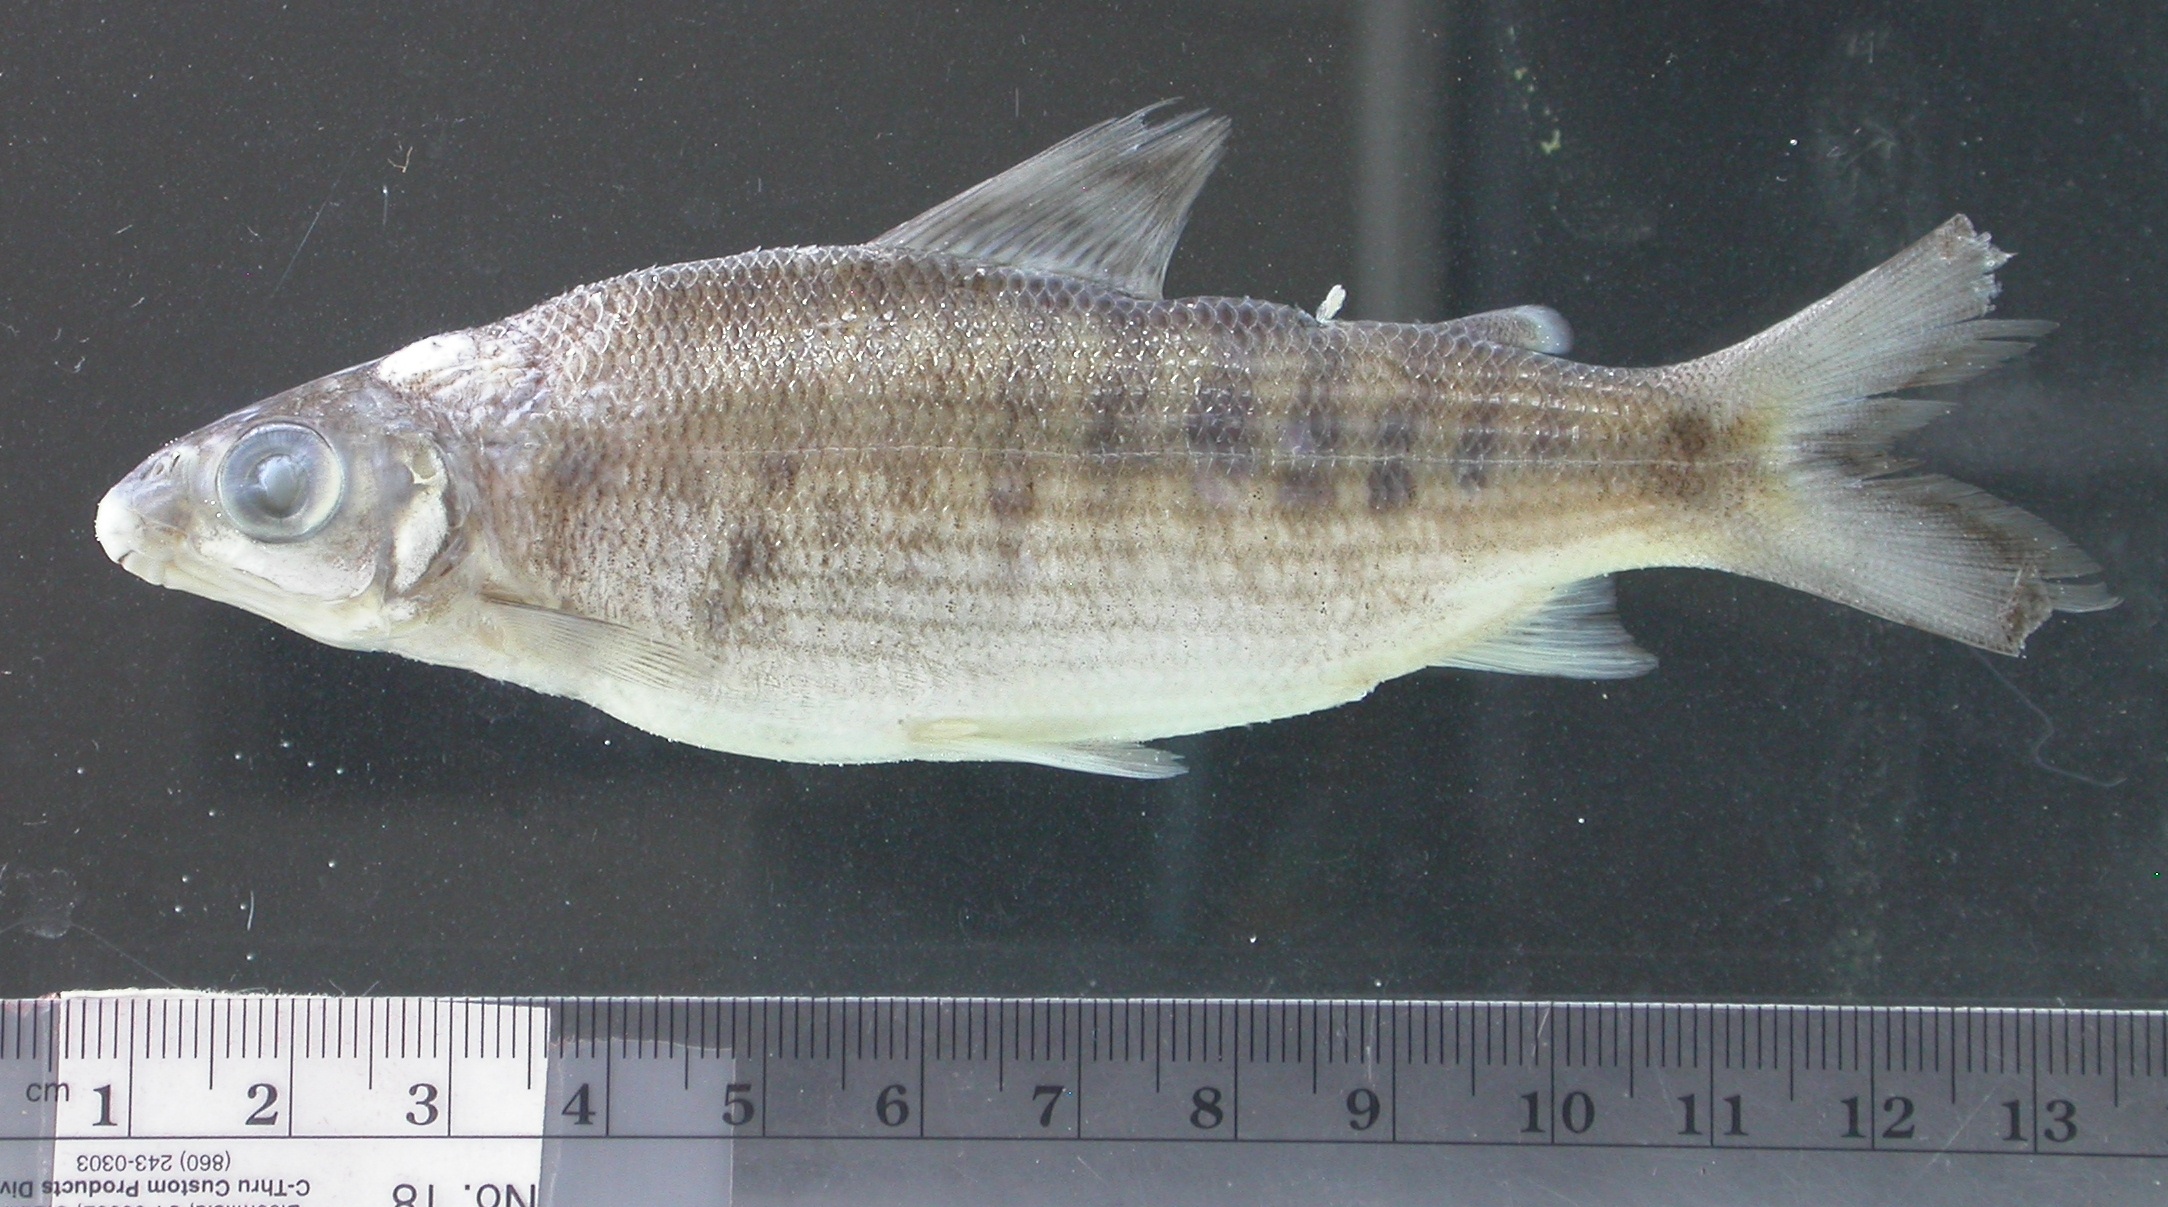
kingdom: Animalia
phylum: Chordata
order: Characiformes
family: Distichodontidae
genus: Distichodus
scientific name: Distichodus maculatus
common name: Spotted citharinid
